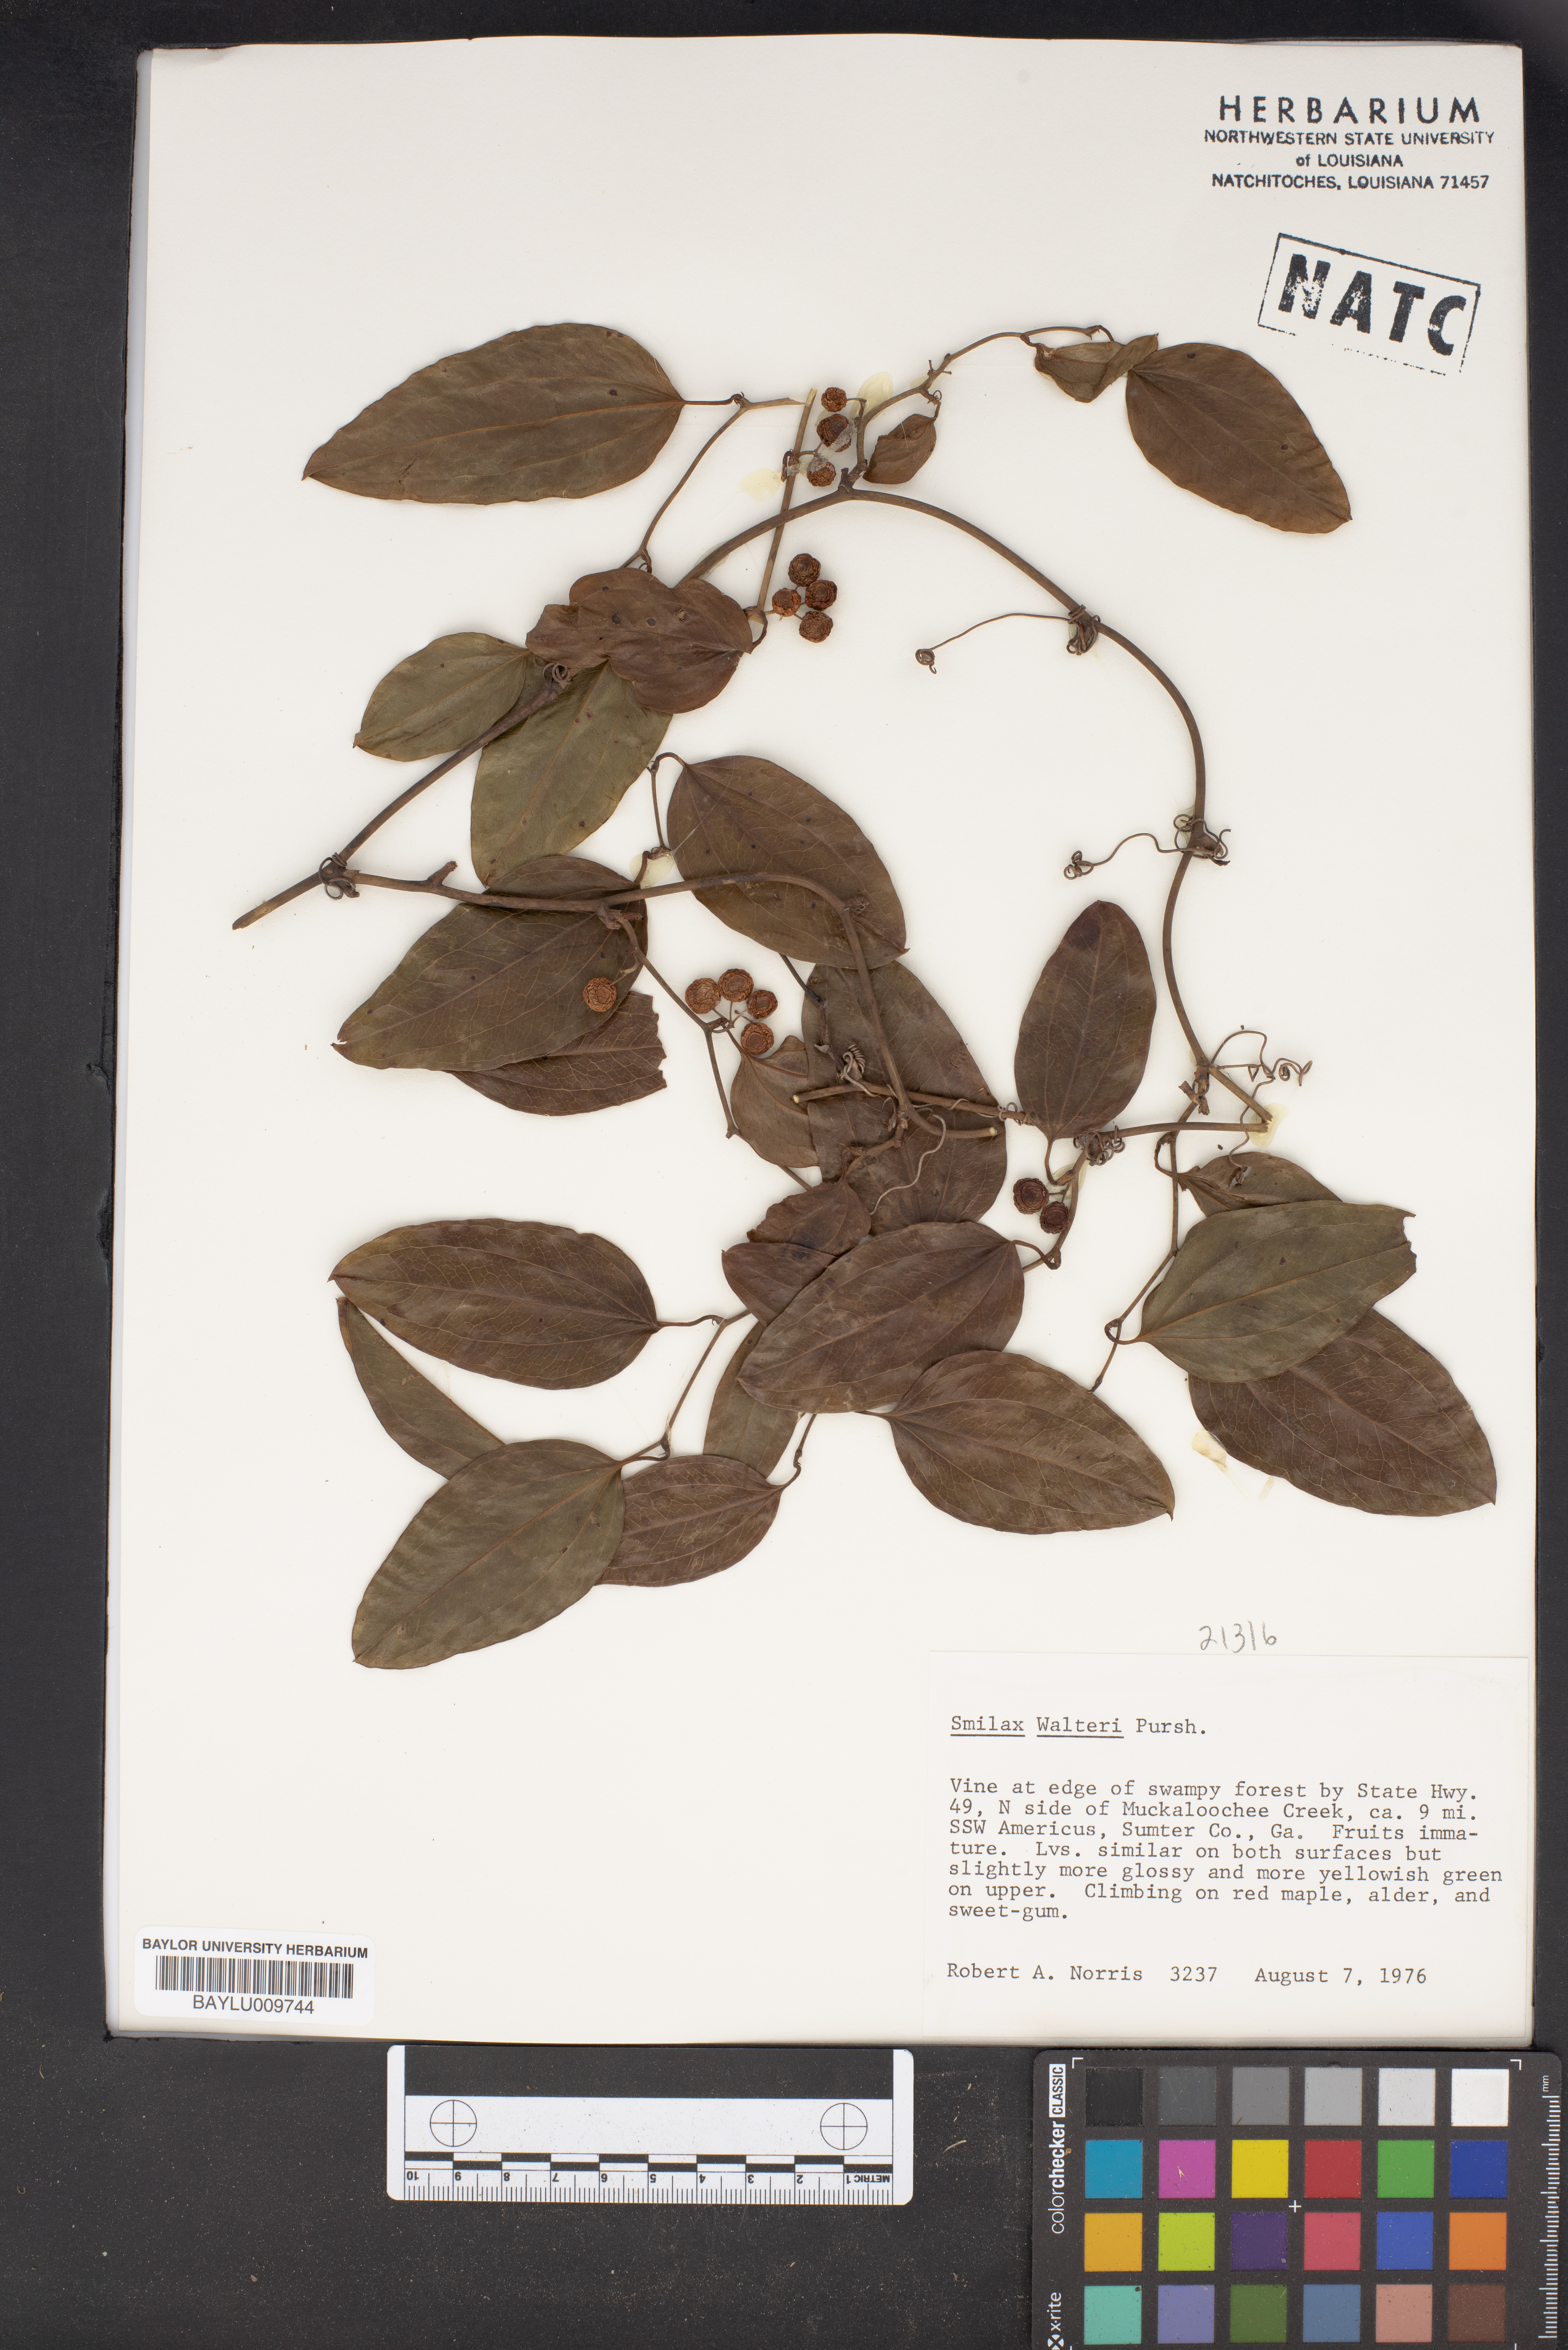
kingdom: Plantae
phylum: Tracheophyta
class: Liliopsida
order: Liliales
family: Smilacaceae
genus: Smilax
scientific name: Smilax walteri
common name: Coral greenbrier
